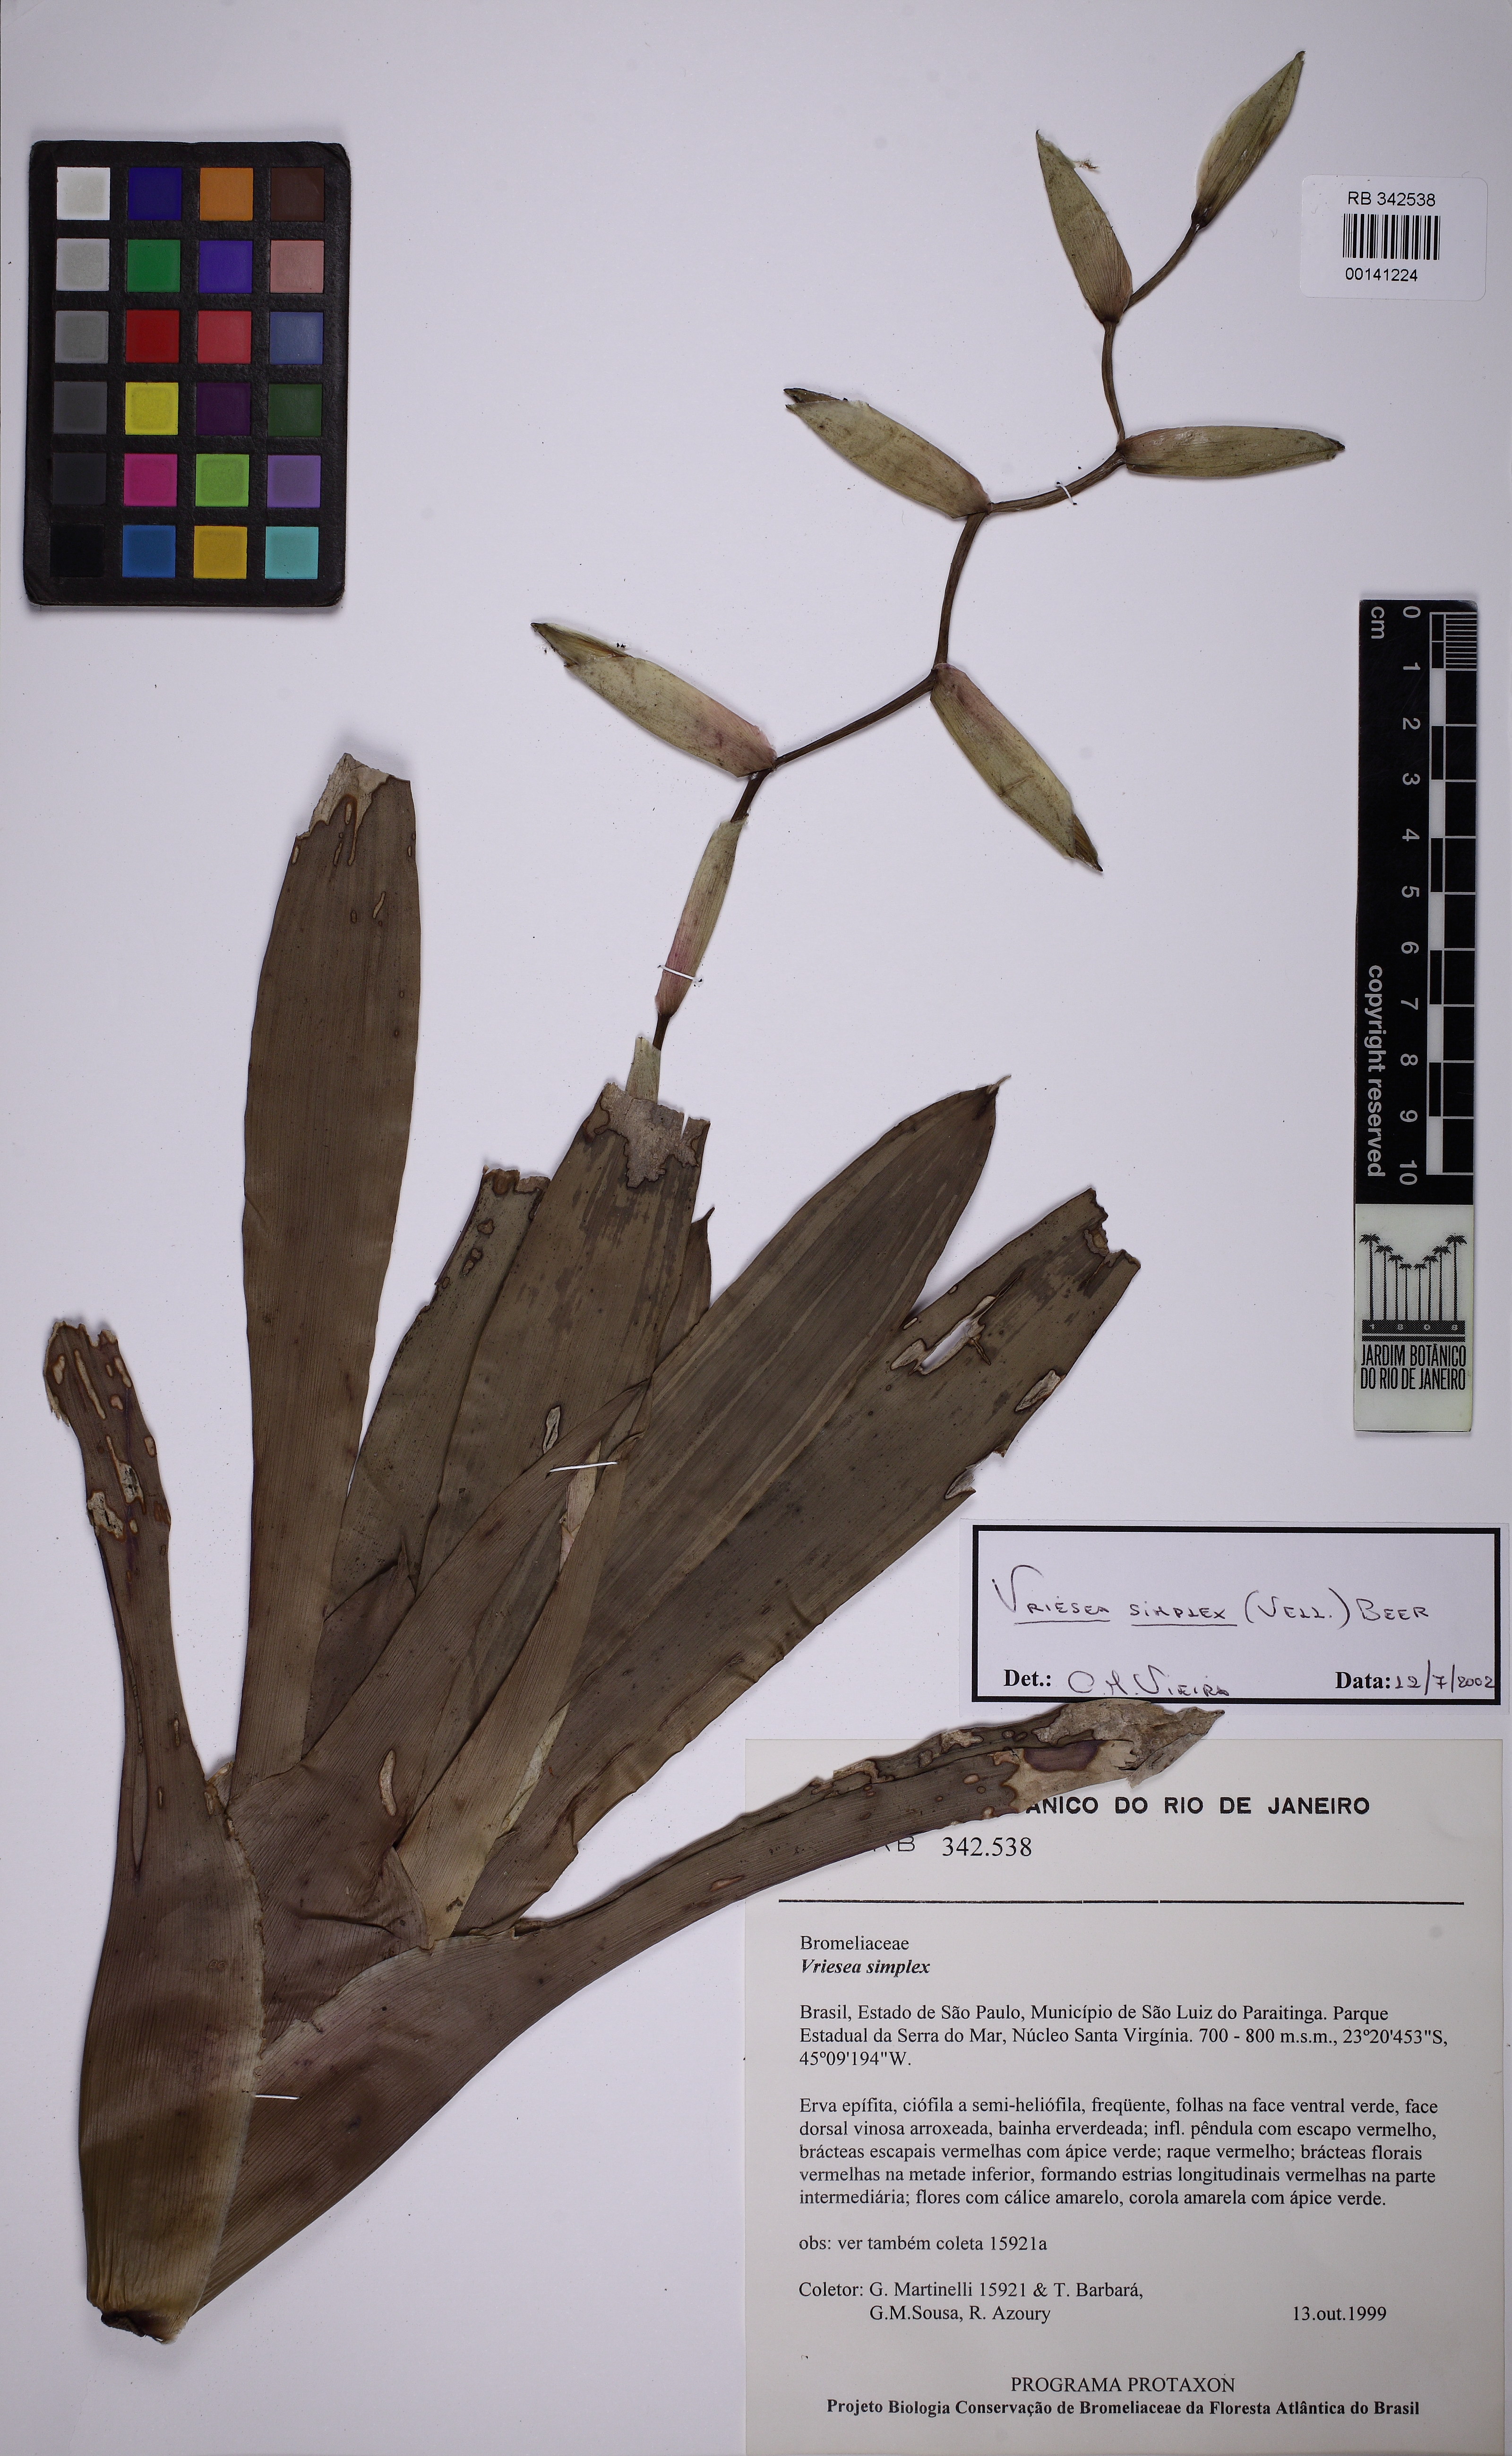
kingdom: Plantae
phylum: Tracheophyta
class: Liliopsida
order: Poales
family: Bromeliaceae
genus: Vriesea
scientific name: Vriesea simplex
